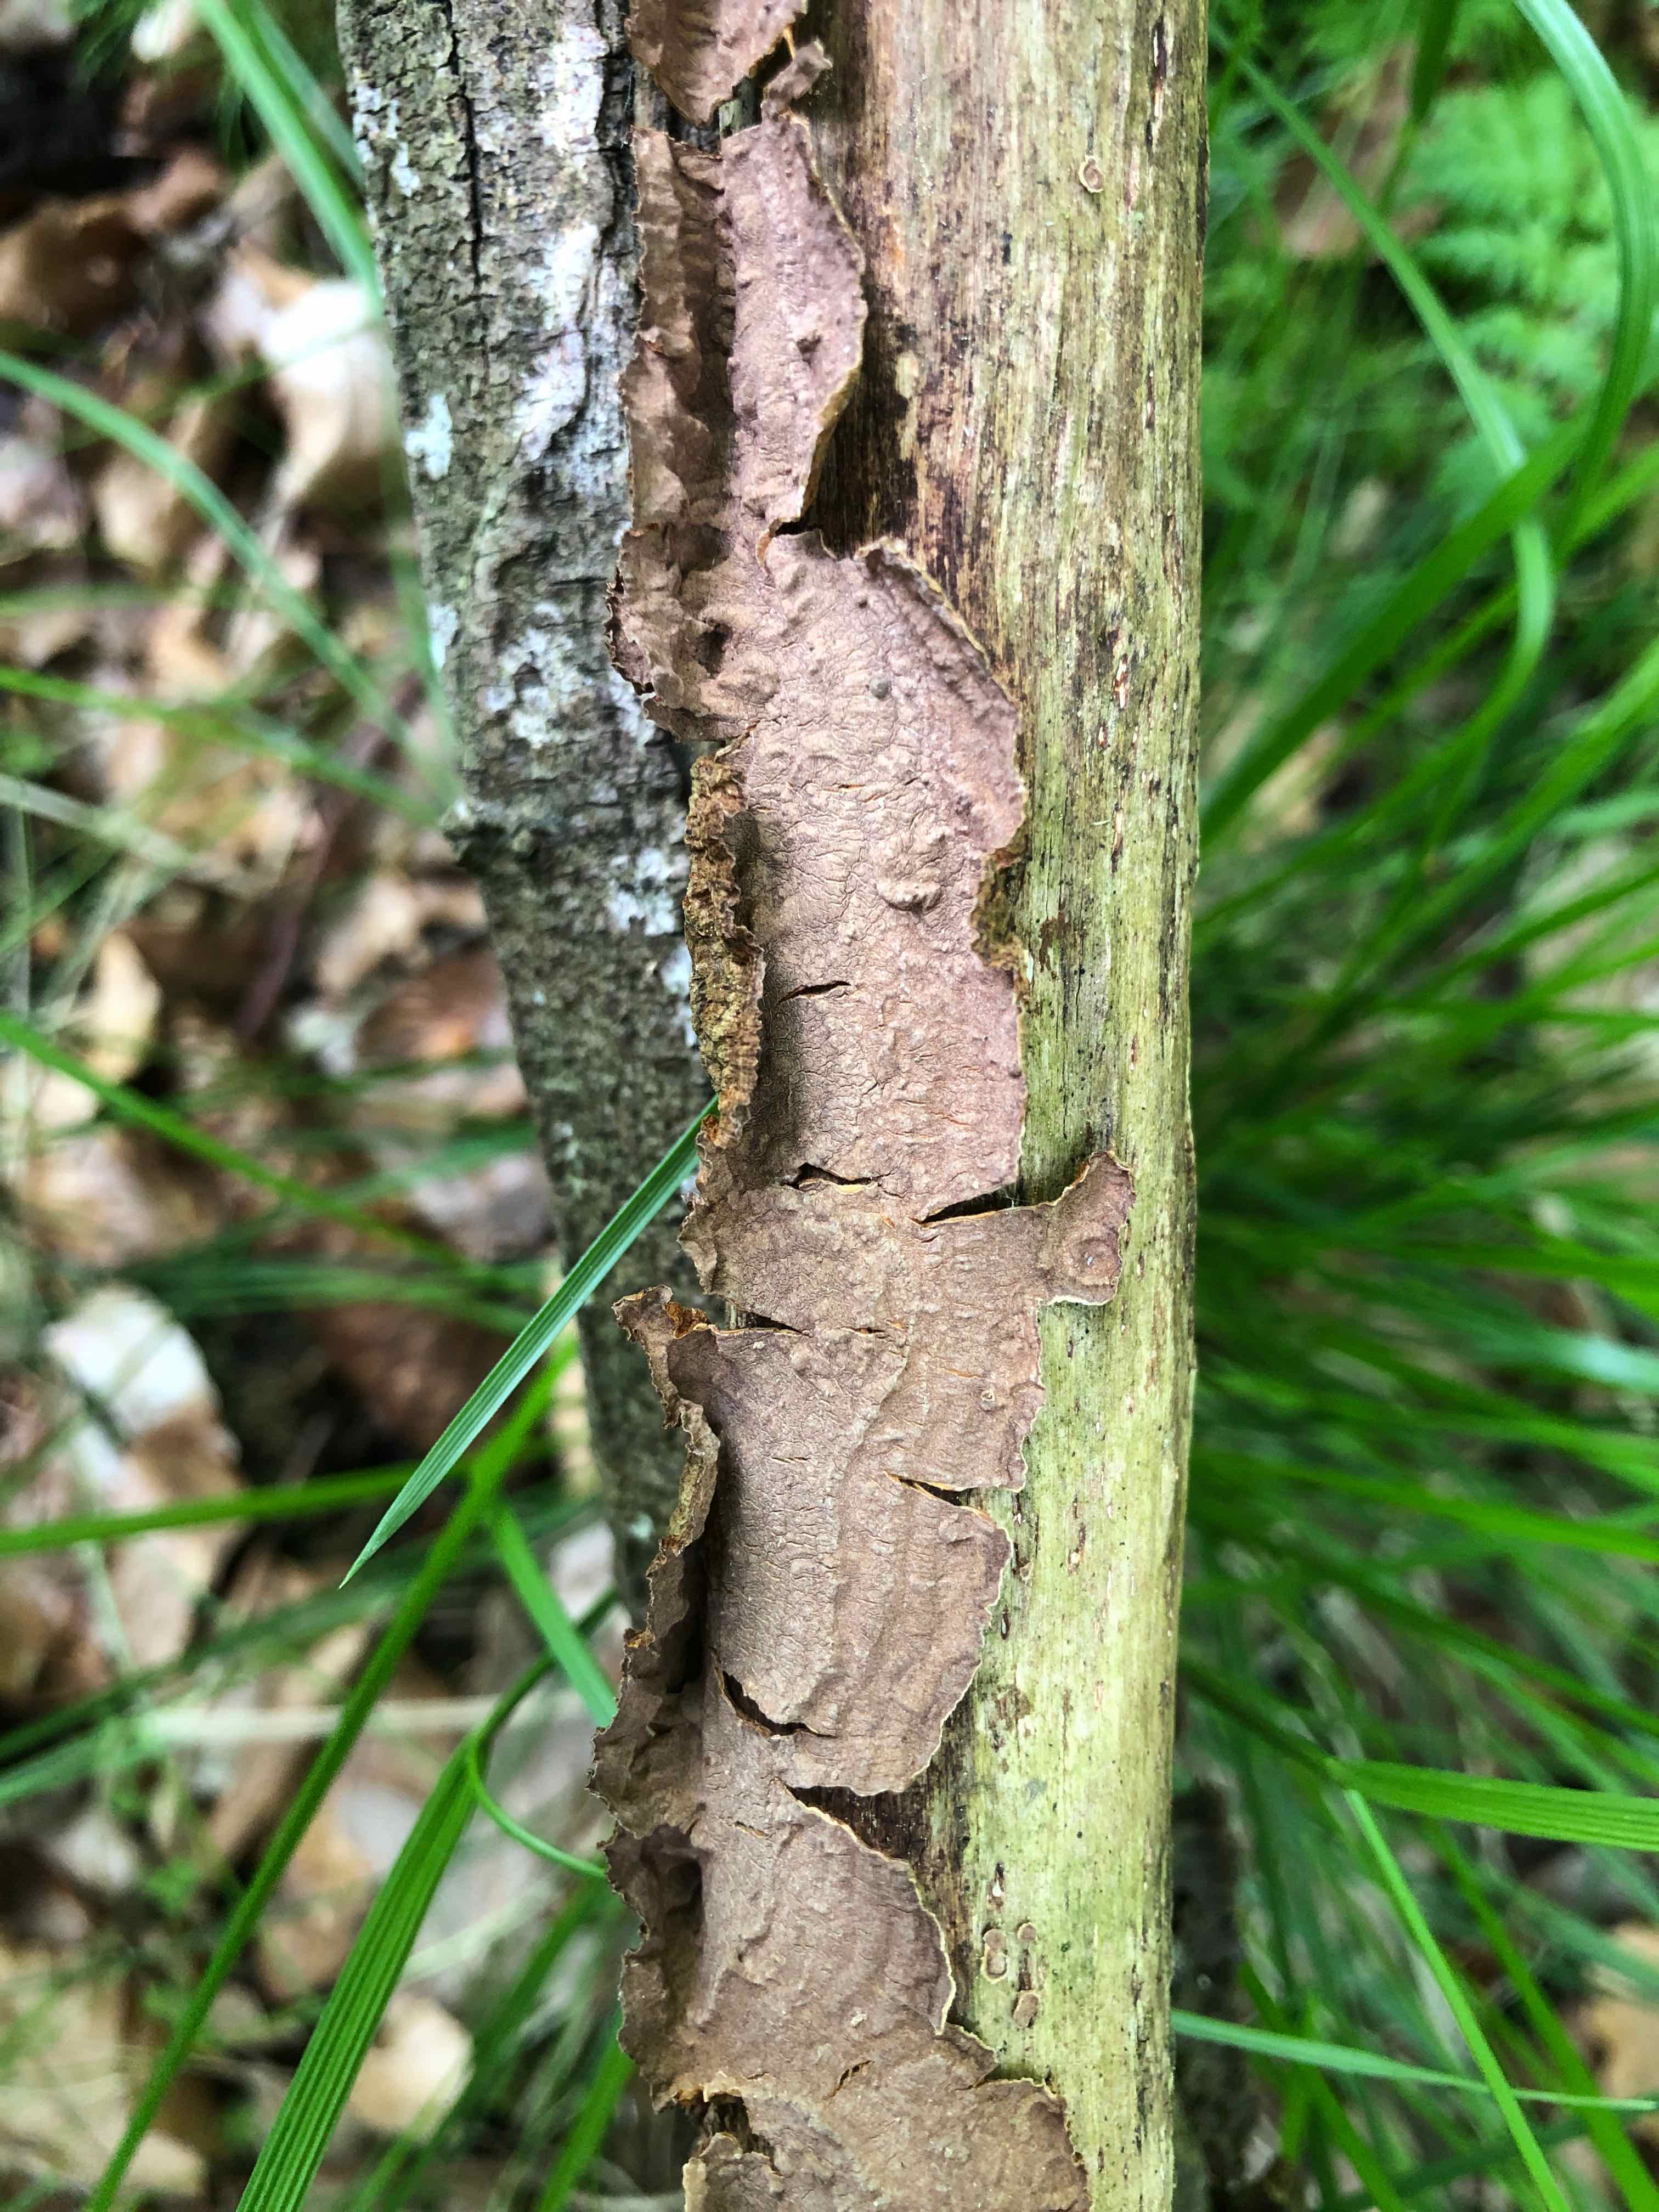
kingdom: Fungi
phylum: Basidiomycota
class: Agaricomycetes
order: Hymenochaetales
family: Hymenochaetaceae
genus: Hydnoporia
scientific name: Hydnoporia tabacina
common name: tobaksbrun ruslædersvamp
